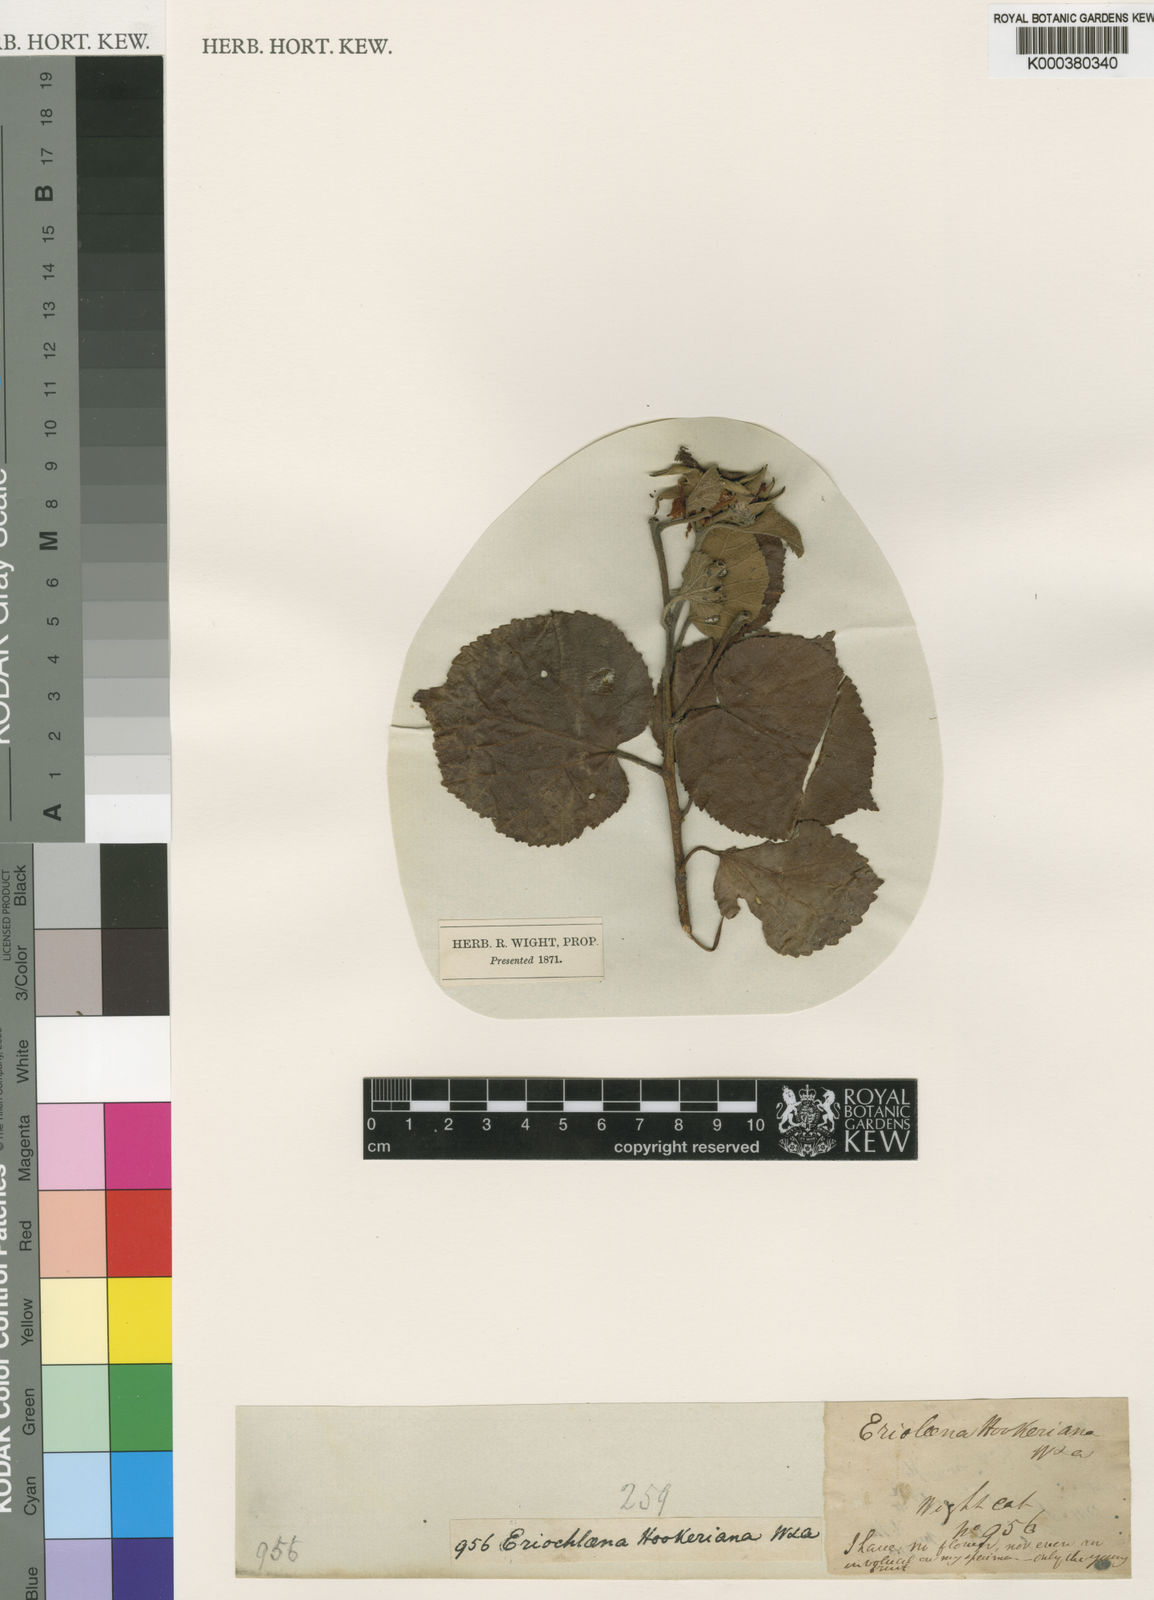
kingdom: Plantae
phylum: Tracheophyta
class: Magnoliopsida
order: Malvales
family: Malvaceae
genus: Eriolaena
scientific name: Eriolaena hookeriana
